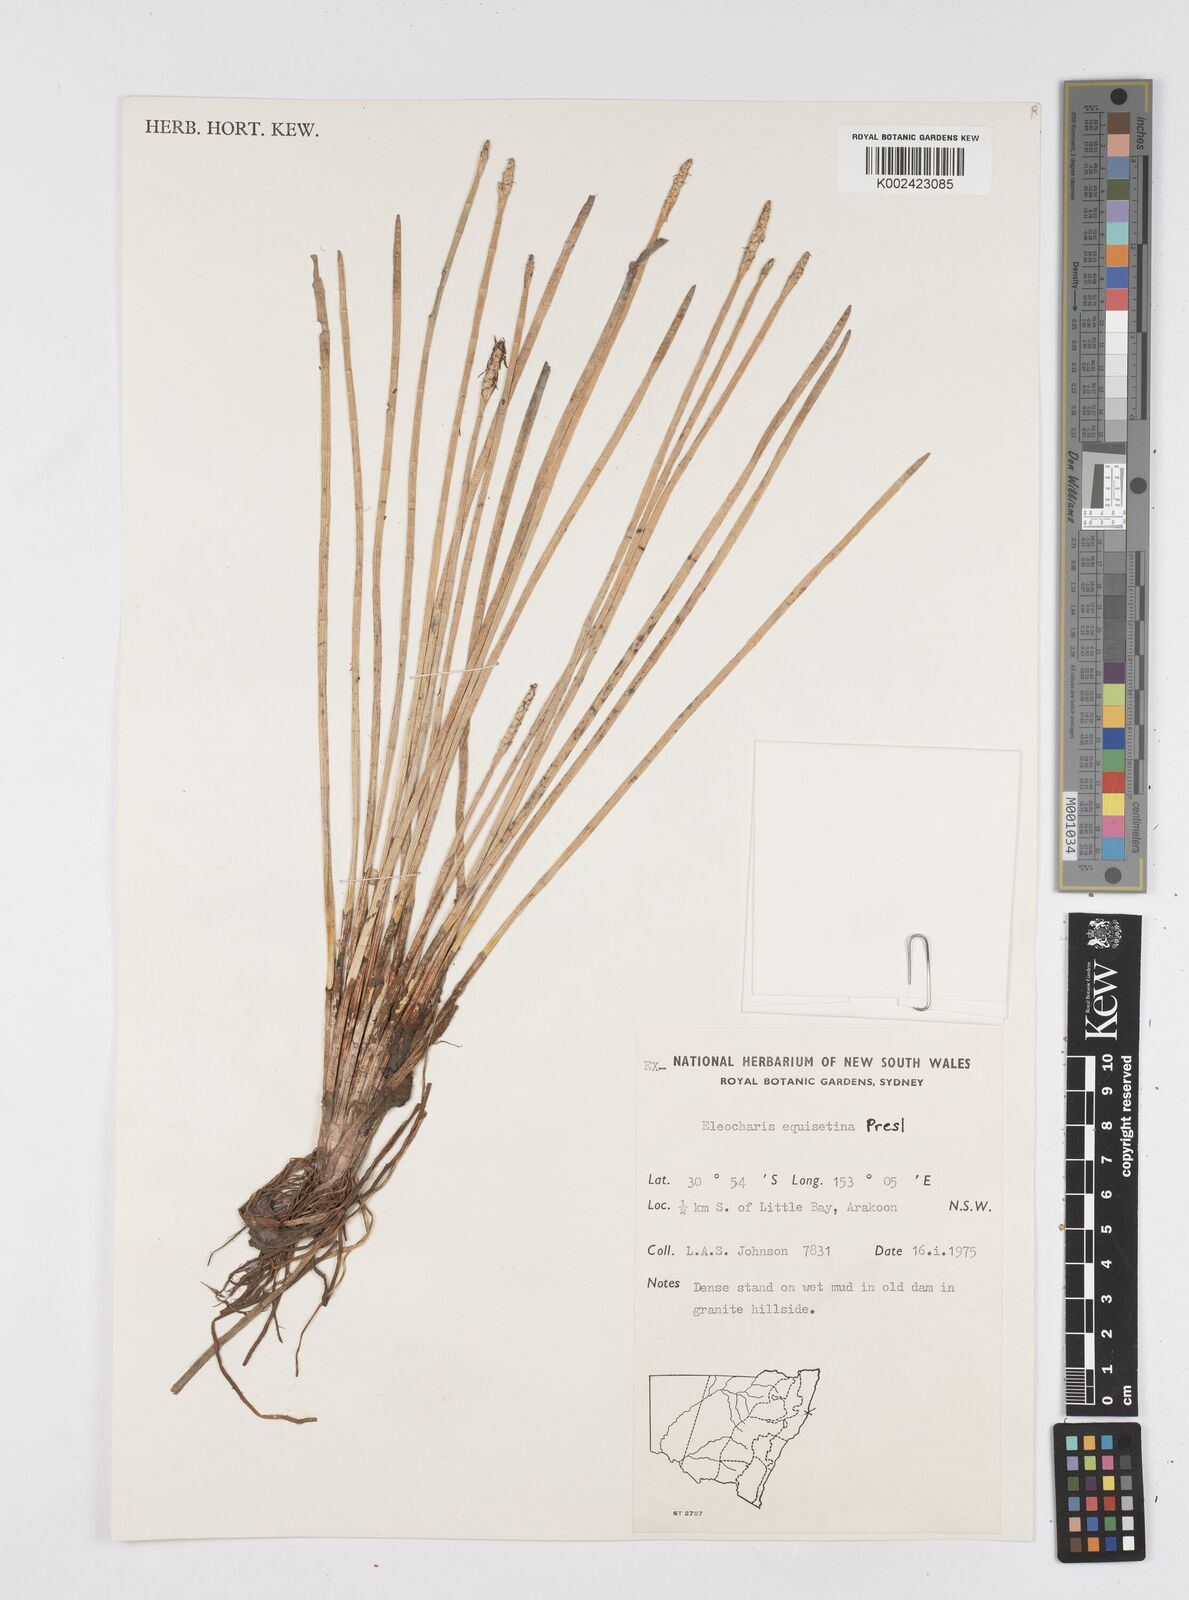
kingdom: Plantae
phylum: Tracheophyta
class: Liliopsida
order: Poales
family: Cyperaceae
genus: Eleocharis
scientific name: Eleocharis dulcis
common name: Chinese water chestnut
